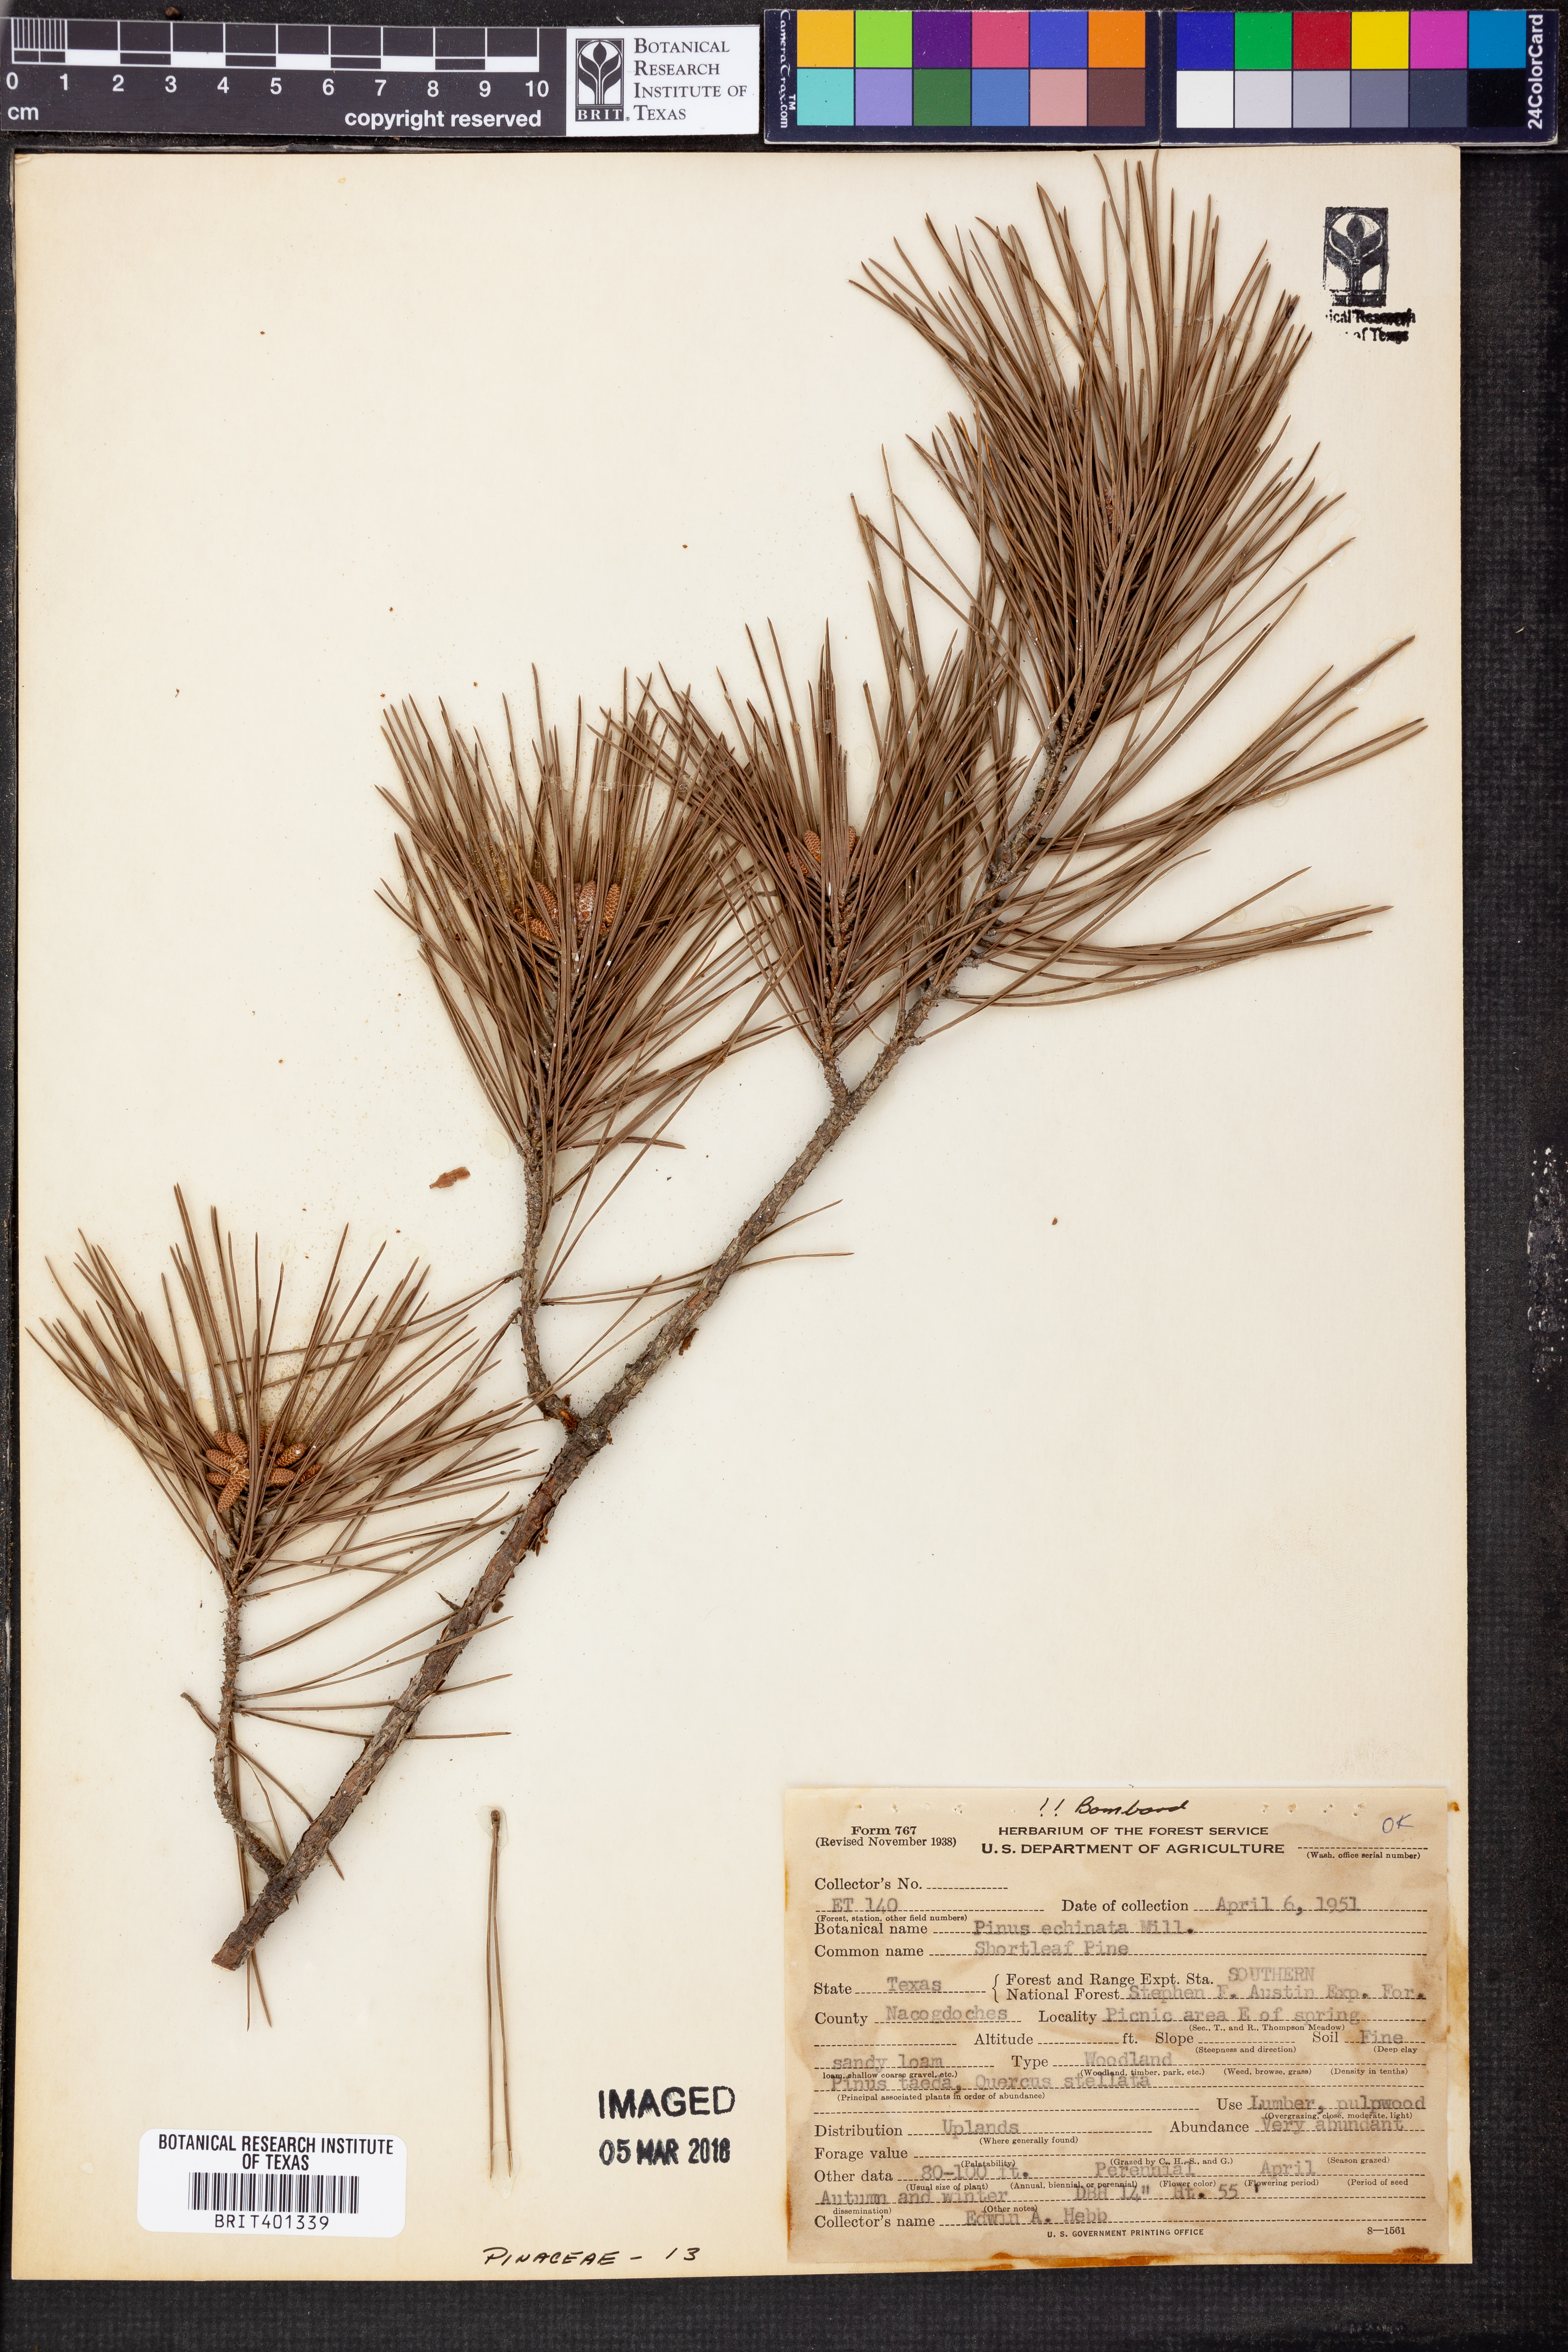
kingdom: Plantae
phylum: Tracheophyta
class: Pinopsida
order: Pinales
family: Pinaceae
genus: Pinus
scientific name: Pinus echinata
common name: Shortleaf pine
